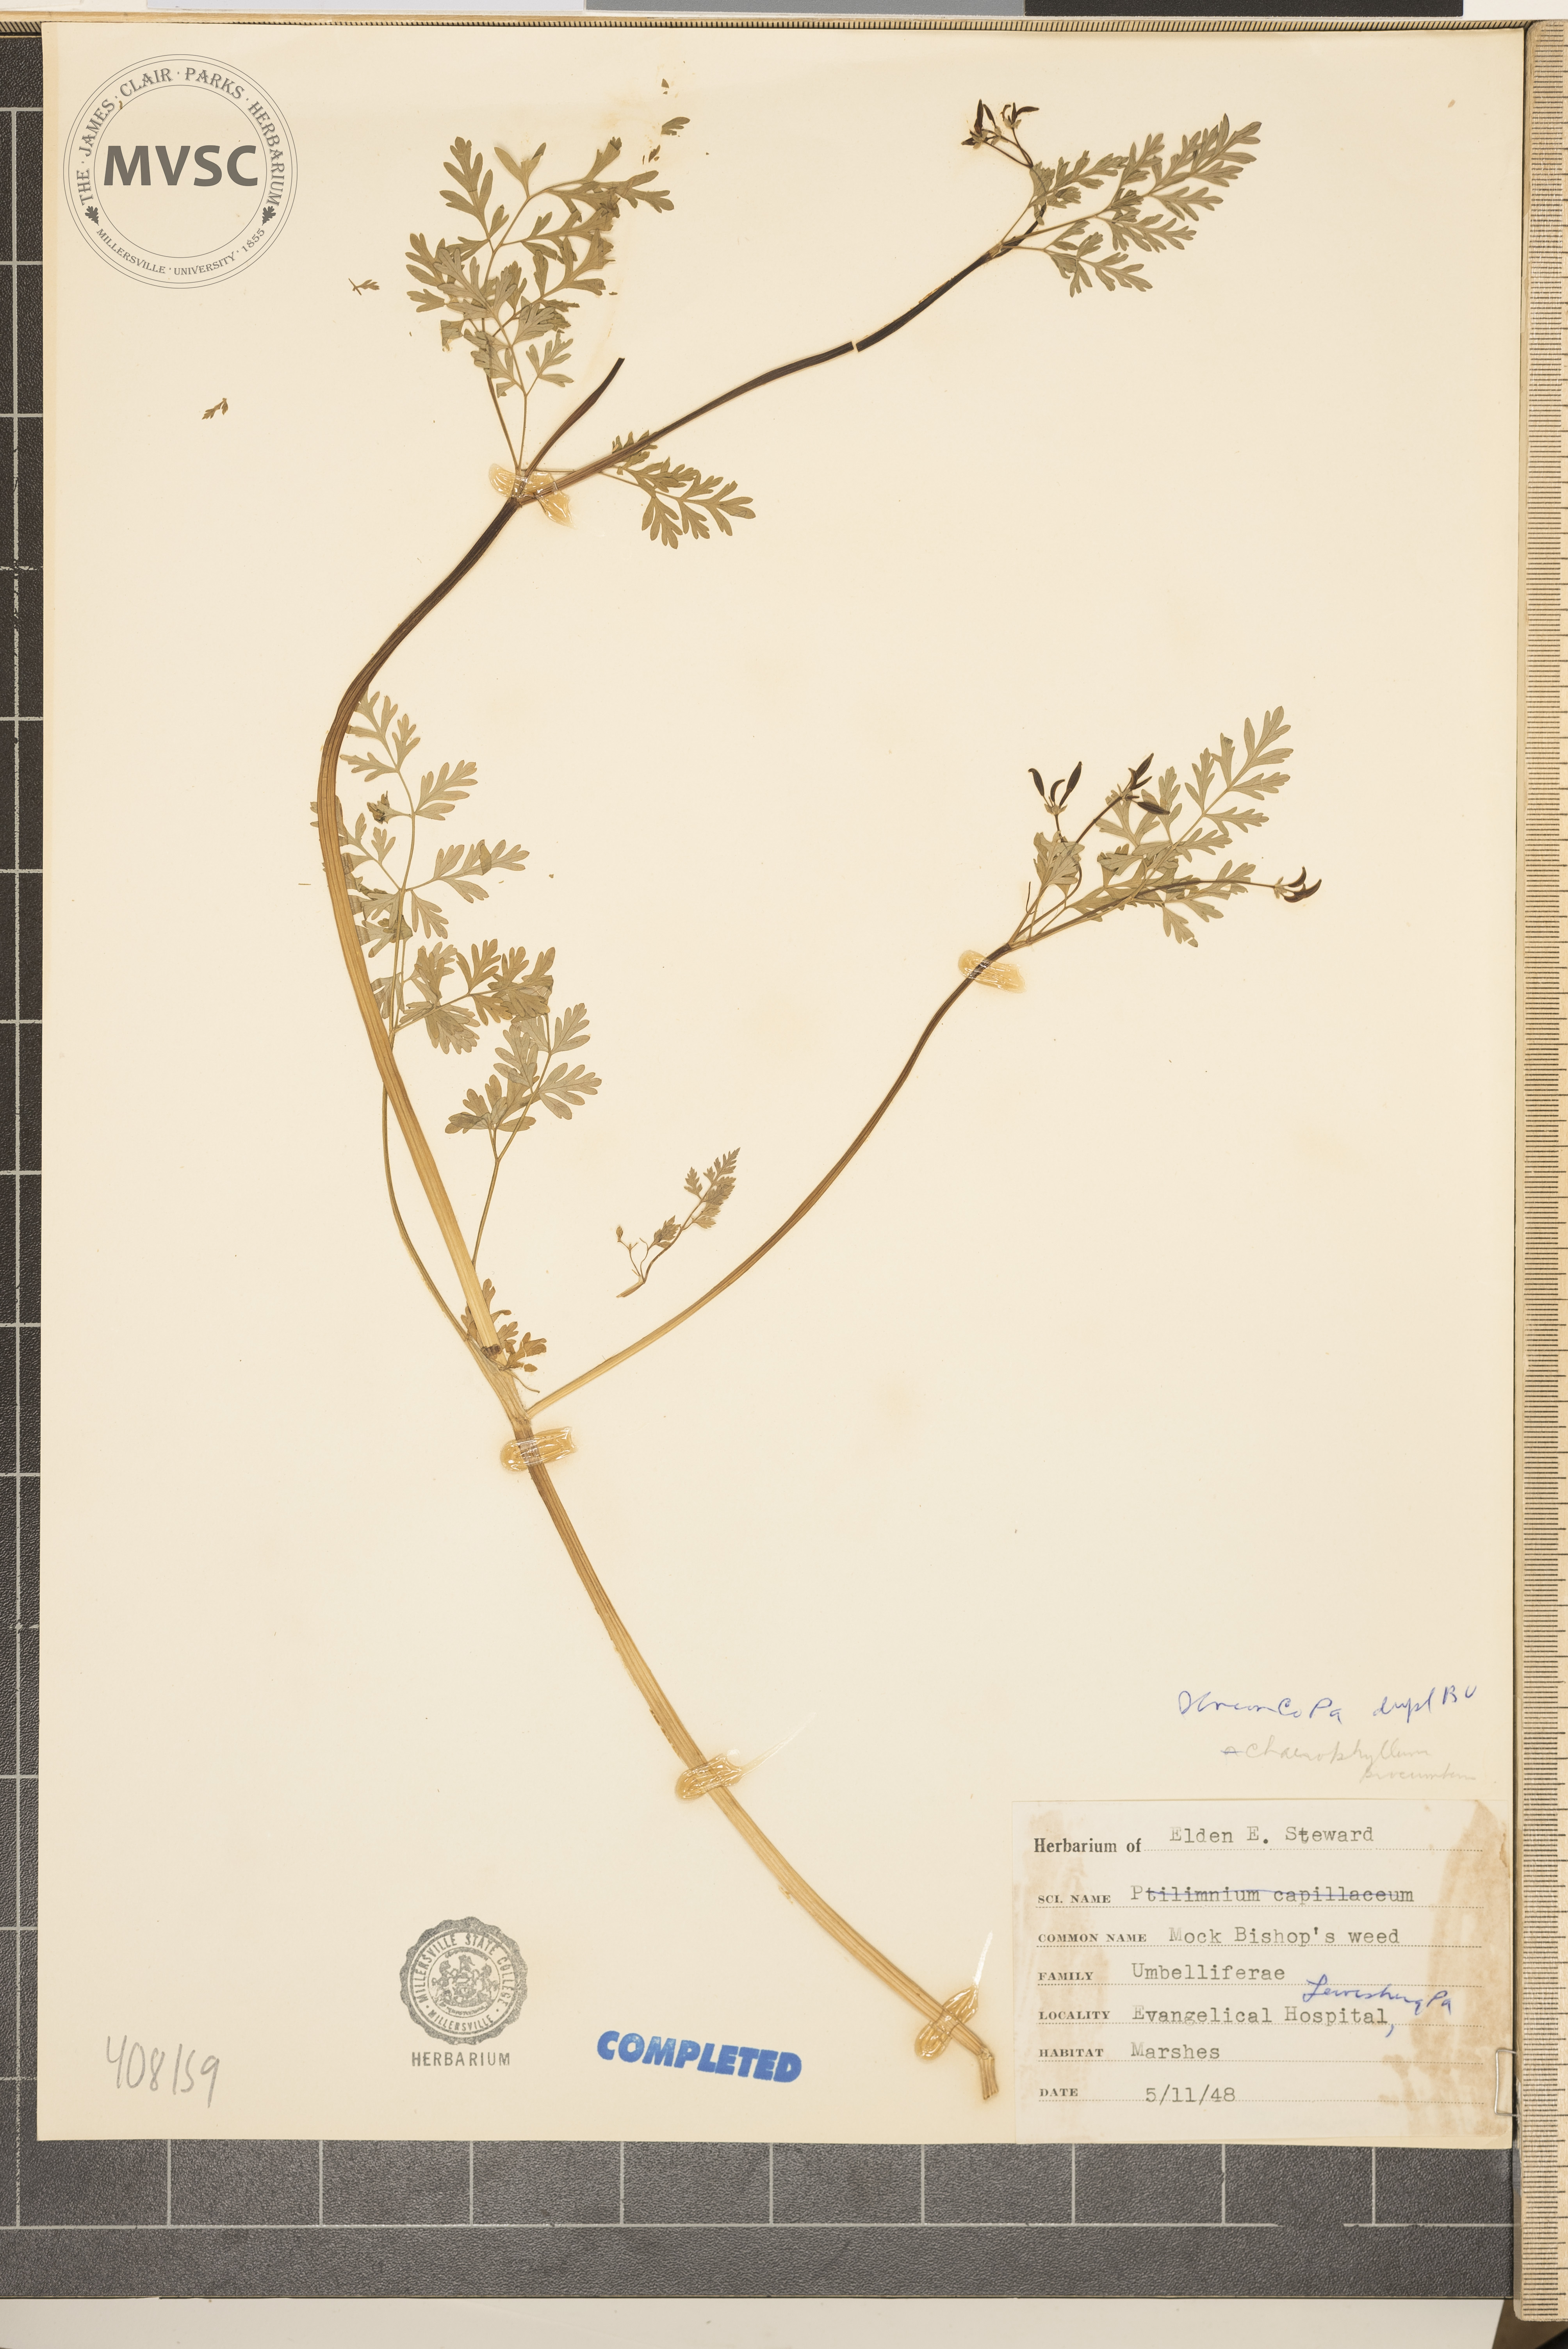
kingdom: Plantae
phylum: Tracheophyta
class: Magnoliopsida
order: Apiales
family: Apiaceae
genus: Chaerophyllum
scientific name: Chaerophyllum procumbens
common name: Spreading chervil
